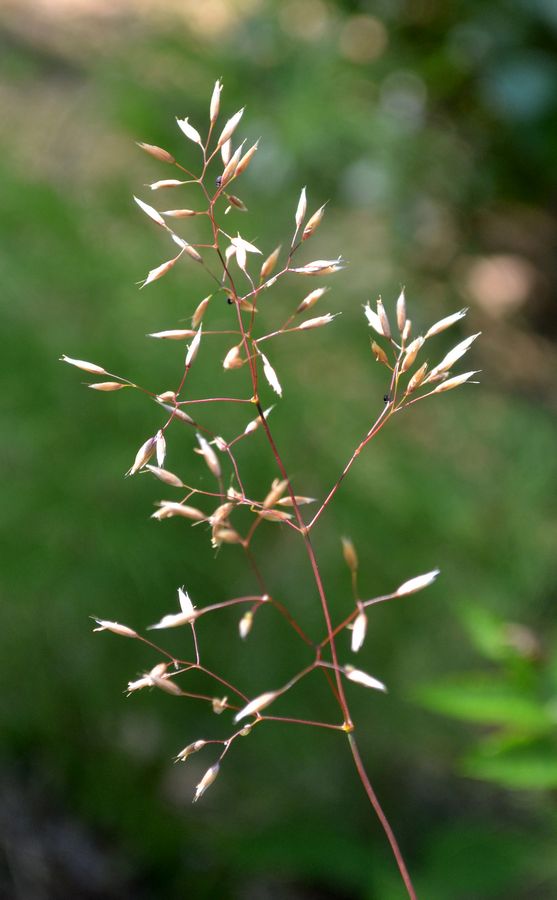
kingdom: Plantae
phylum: Tracheophyta
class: Liliopsida
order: Poales
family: Poaceae
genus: Avenella
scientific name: Avenella flexuosa
